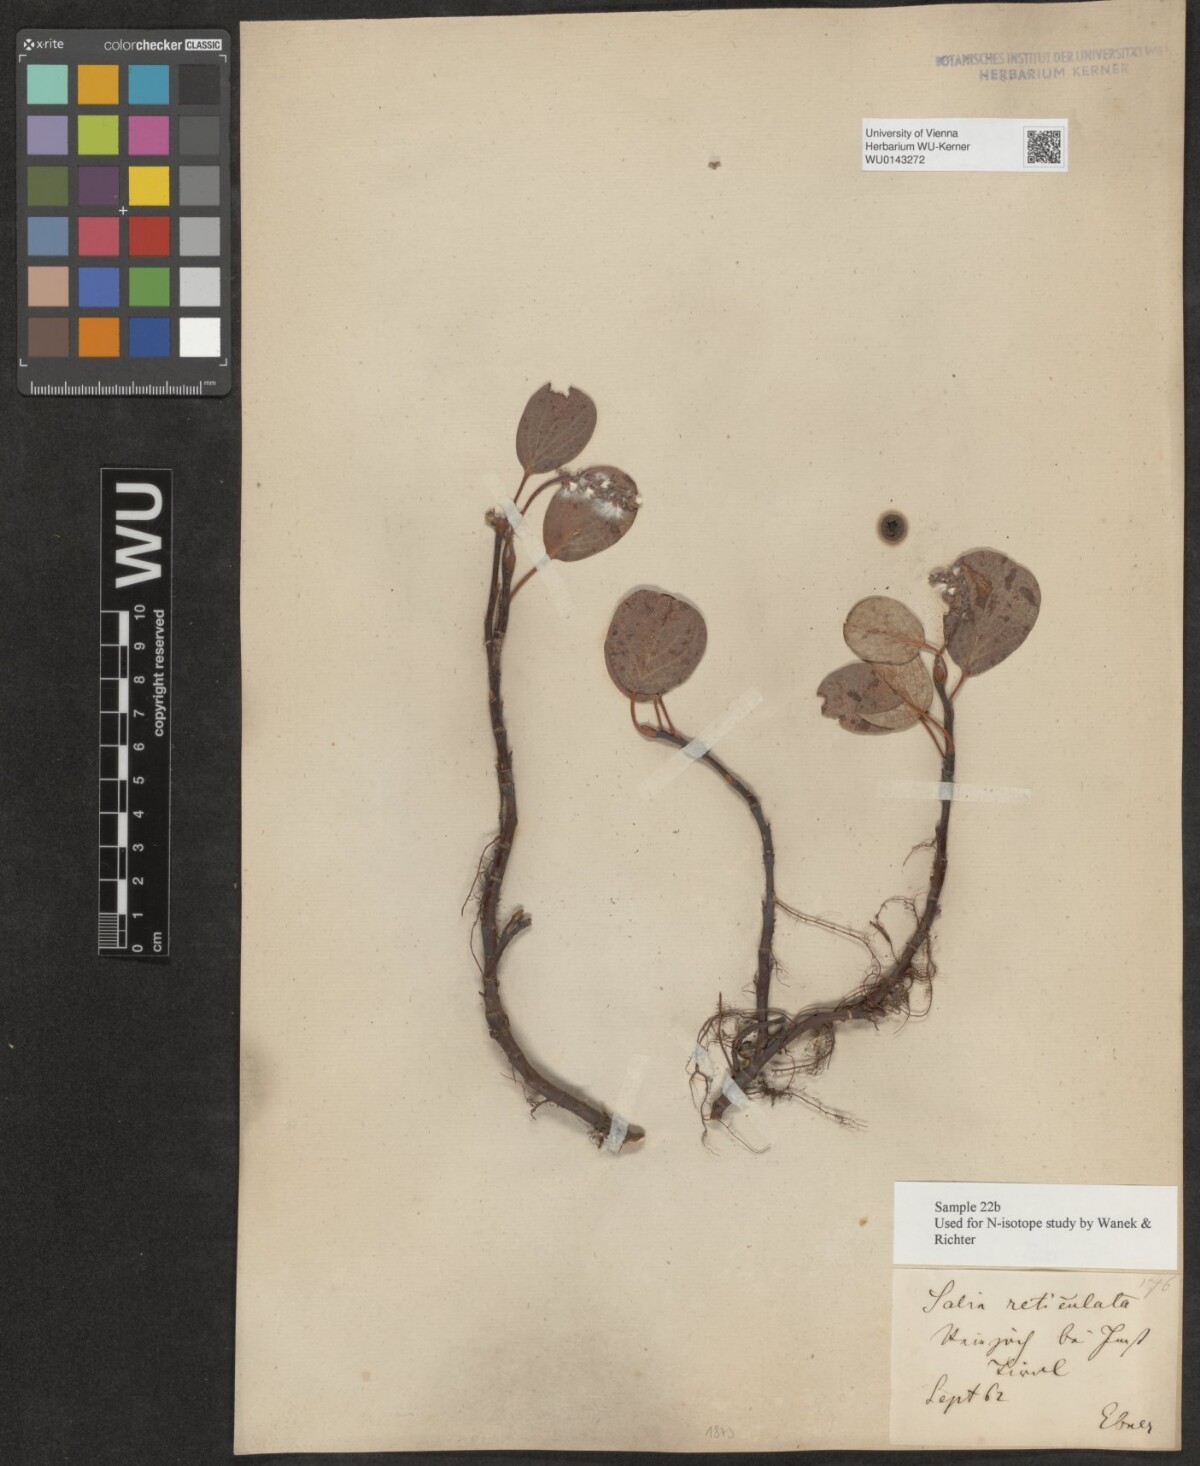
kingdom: Plantae
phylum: Tracheophyta
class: Magnoliopsida
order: Malpighiales
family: Salicaceae
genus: Salix
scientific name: Salix reticulata
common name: Net-leaved willow
